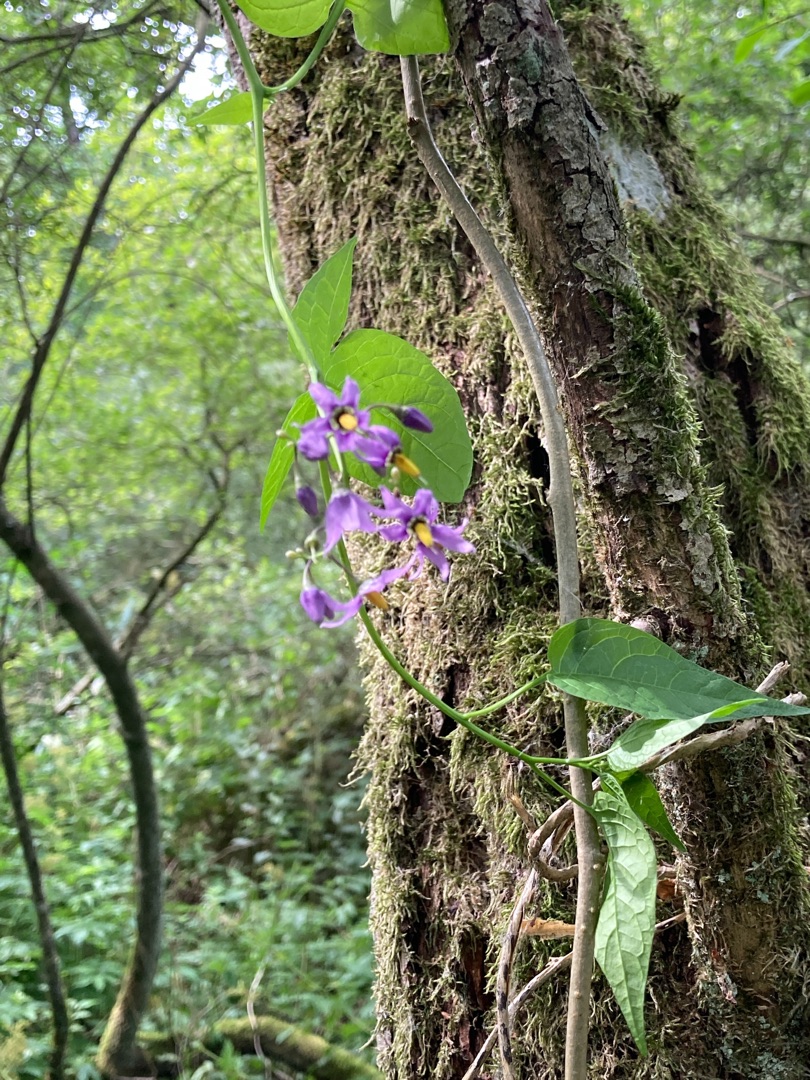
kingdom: Plantae
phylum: Tracheophyta
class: Magnoliopsida
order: Solanales
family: Solanaceae
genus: Solanum
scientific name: Solanum dulcamara
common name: Bittersød natskygge
